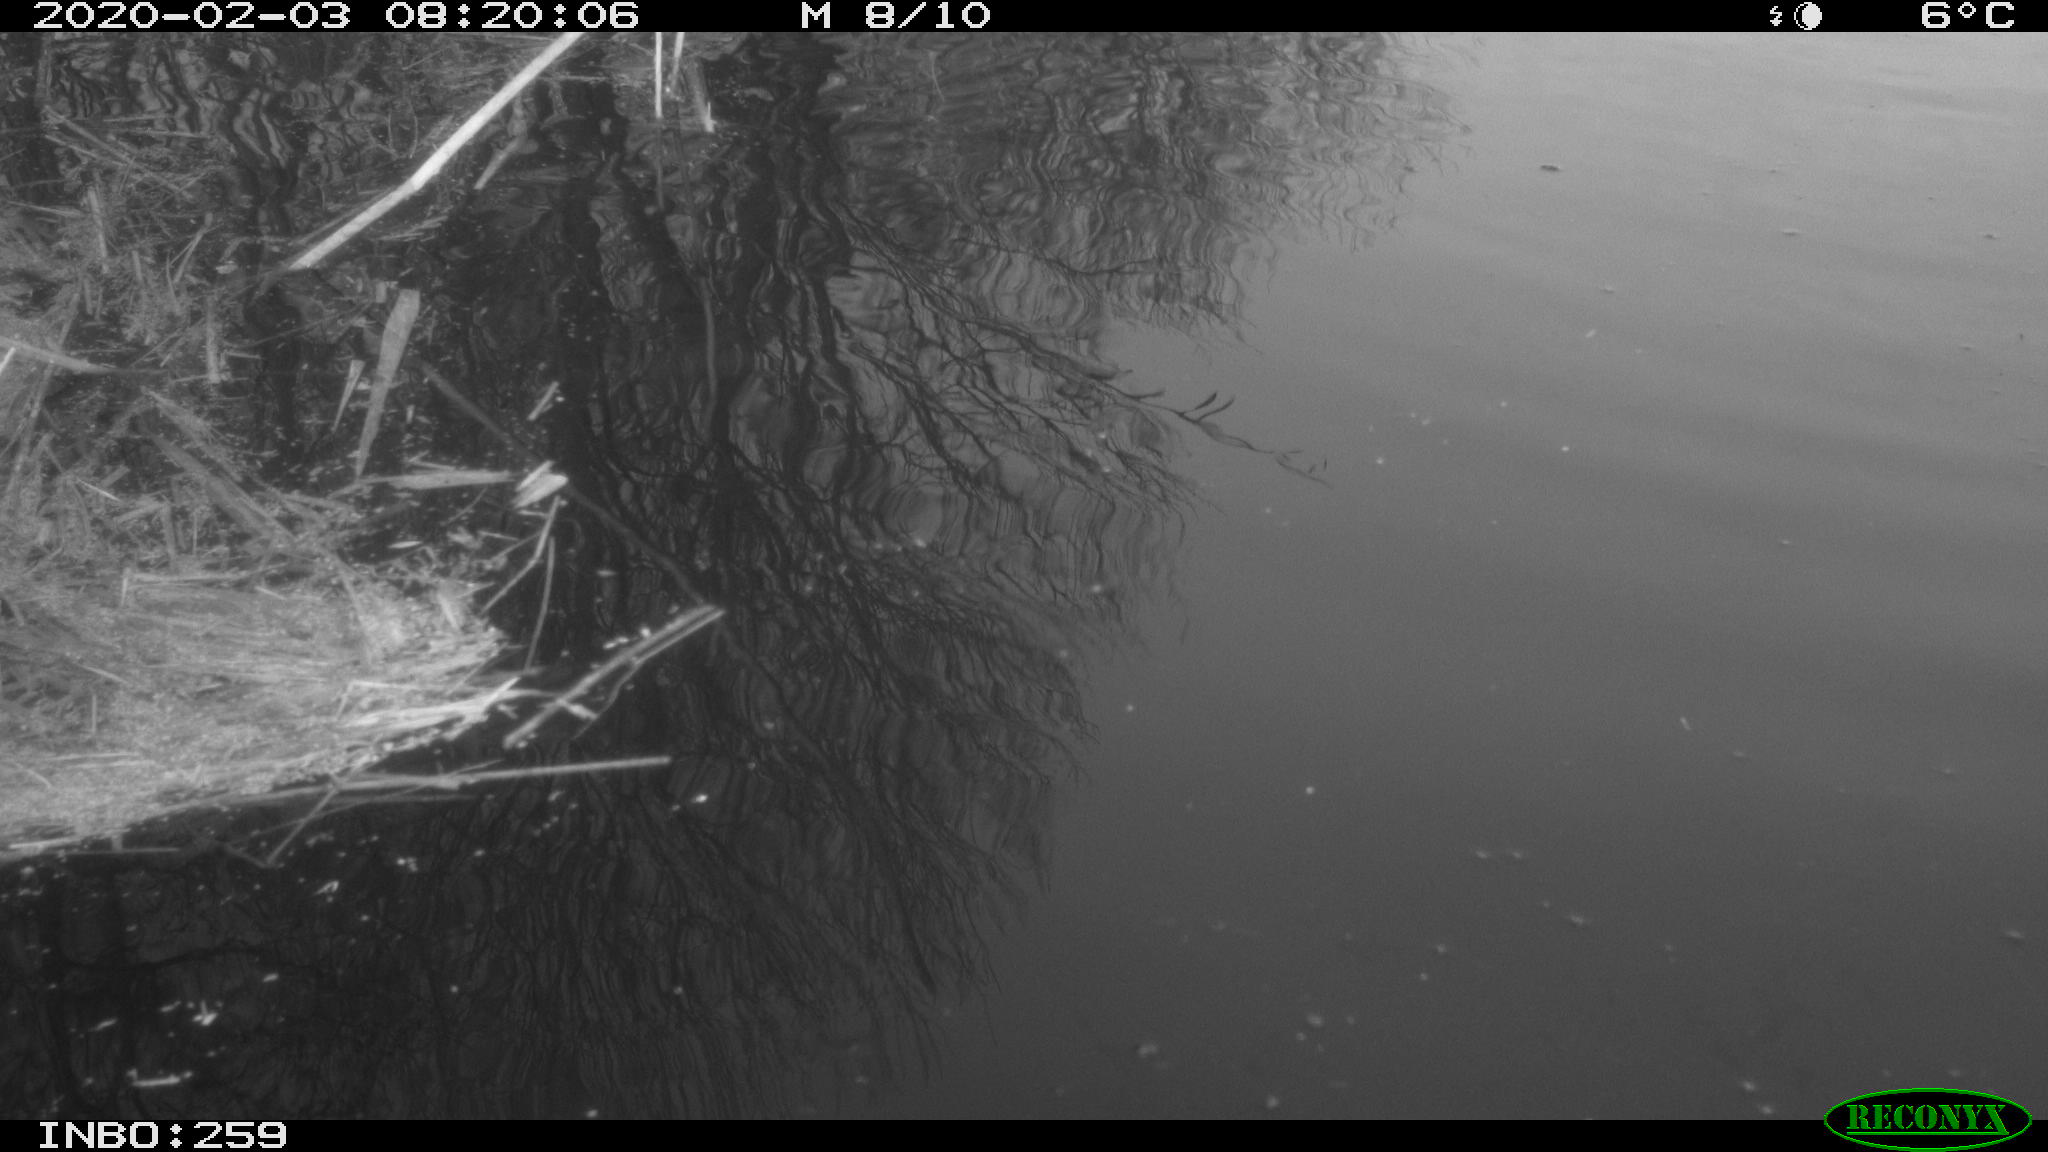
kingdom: Animalia
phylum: Chordata
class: Aves
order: Gruiformes
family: Rallidae
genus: Gallinula
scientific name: Gallinula chloropus
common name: Common moorhen
